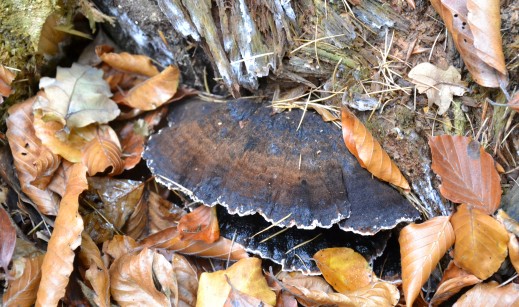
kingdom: Fungi
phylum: Basidiomycota
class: Agaricomycetes
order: Polyporales
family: Ischnodermataceae
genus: Ischnoderma
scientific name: Ischnoderma benzoinum
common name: gran-tjæreporesvamp
